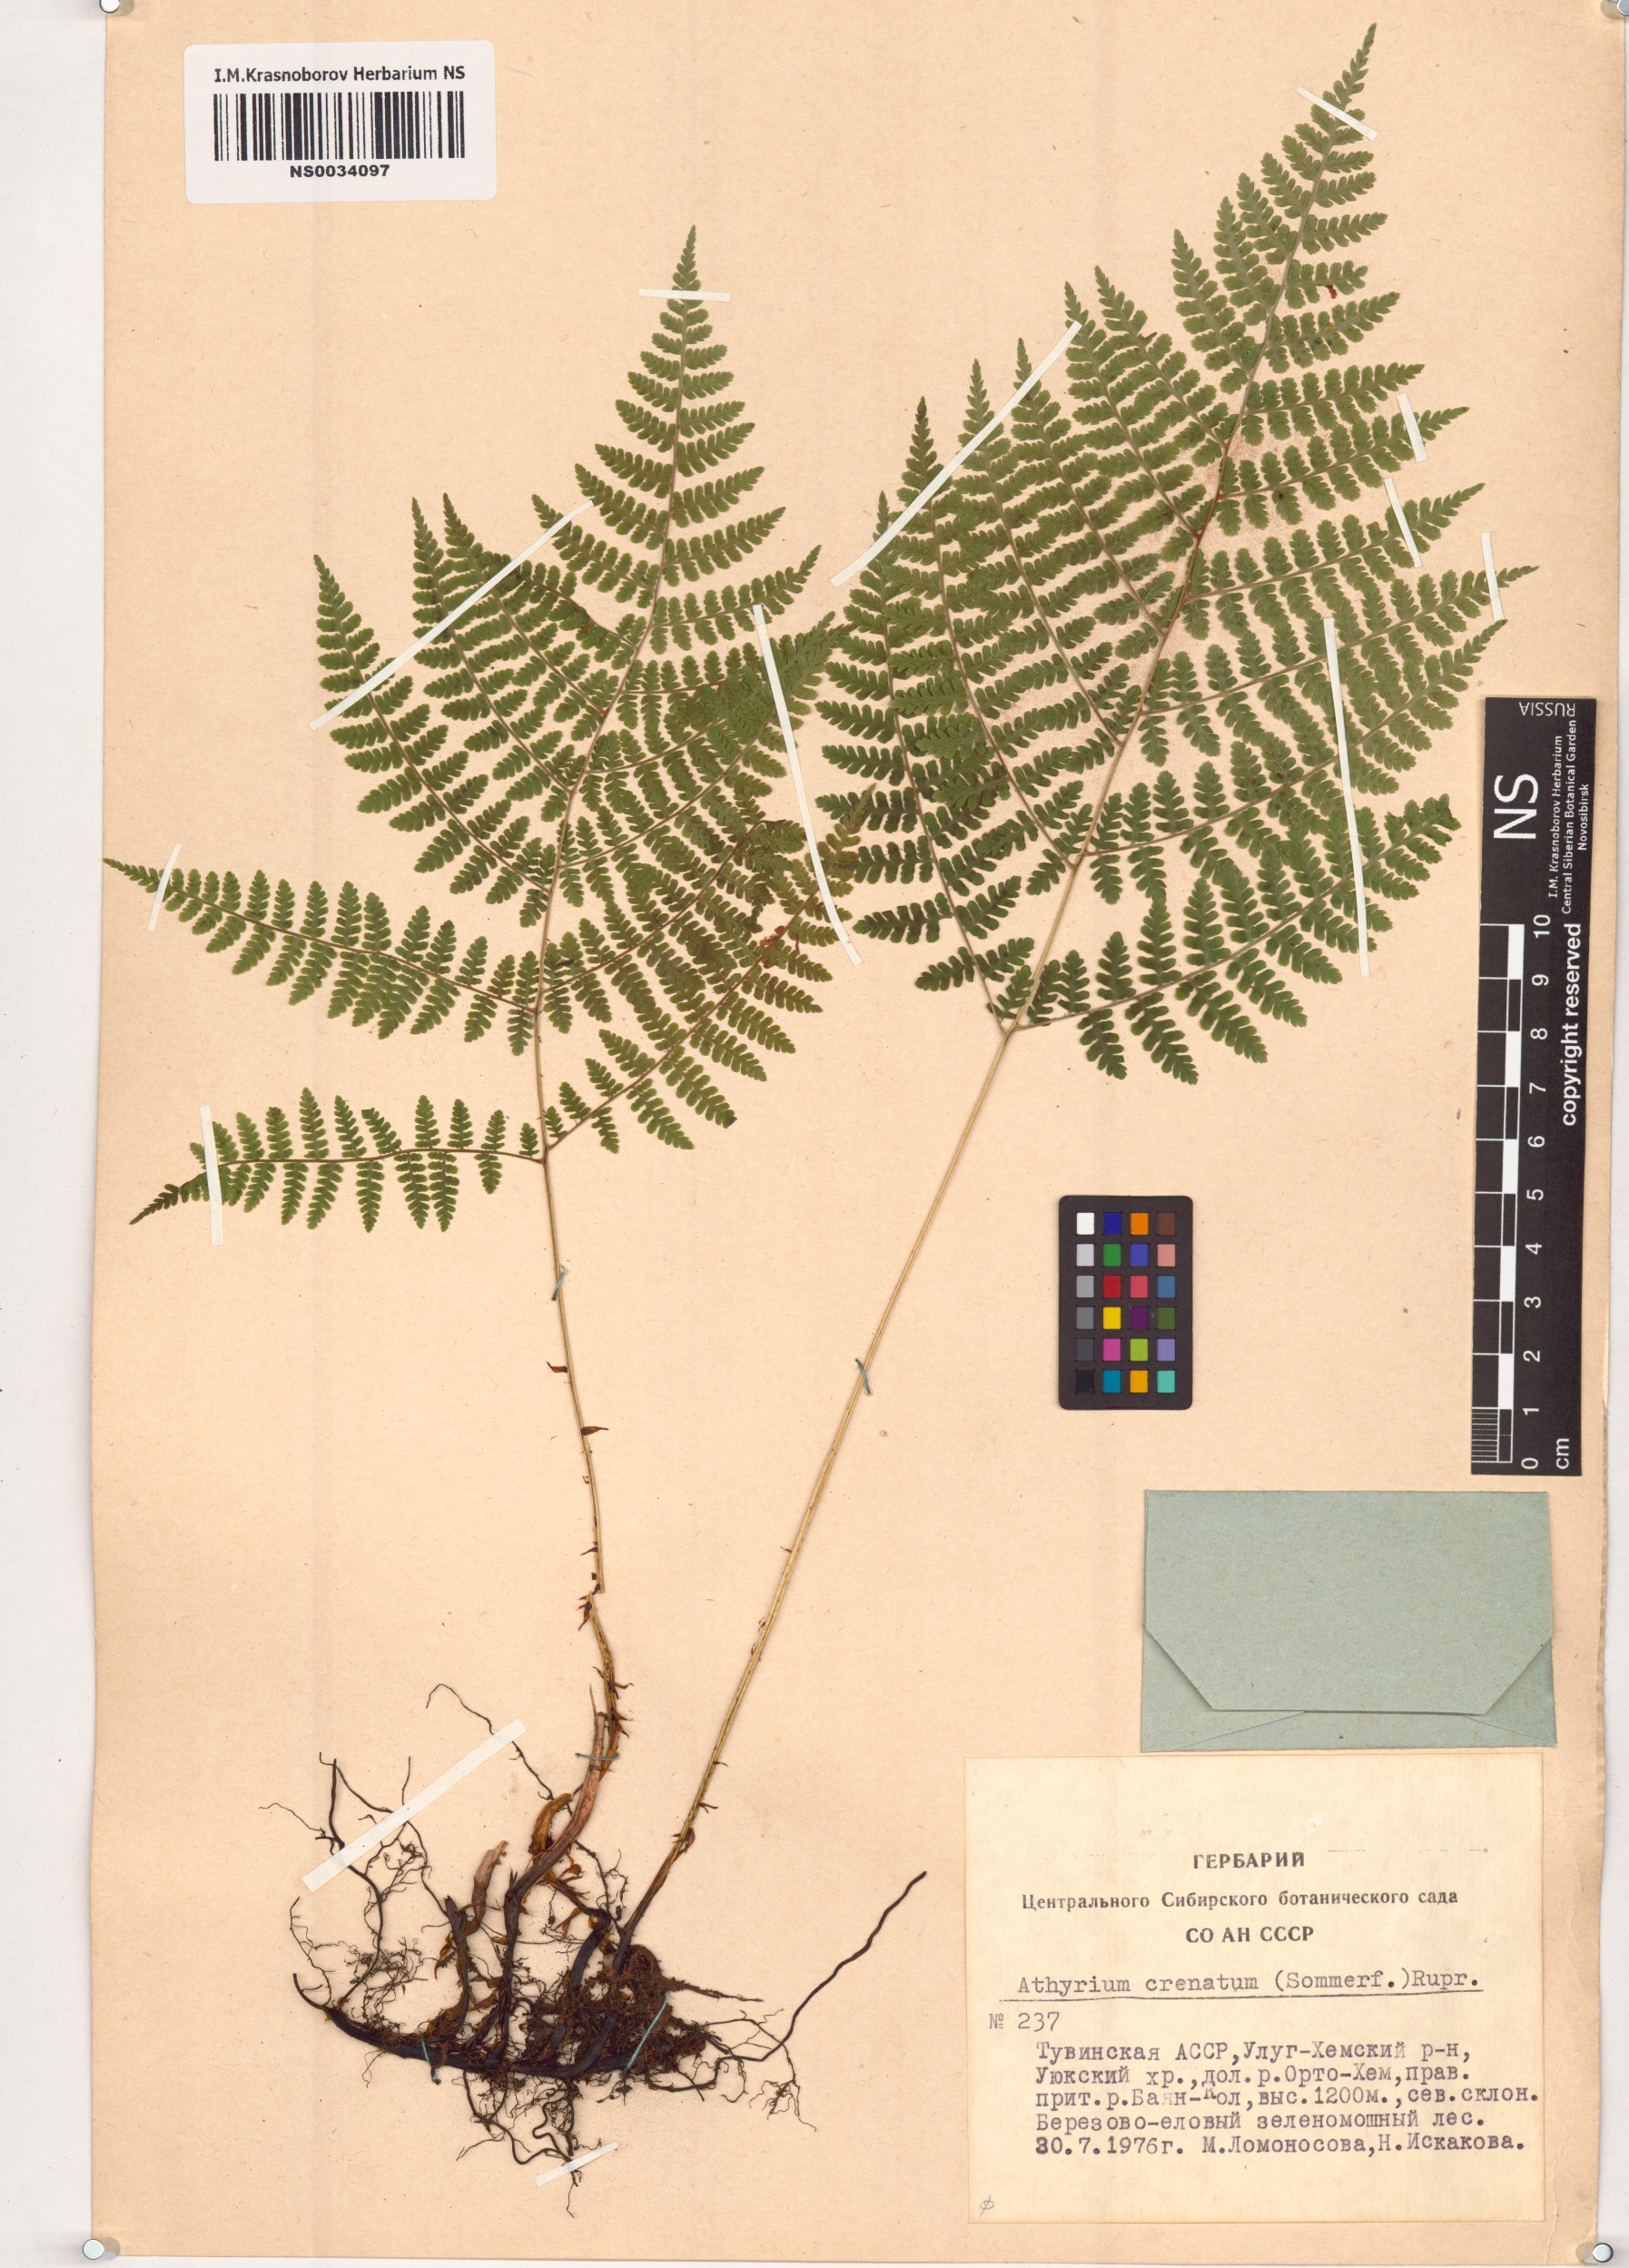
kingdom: Plantae
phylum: Tracheophyta
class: Polypodiopsida
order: Polypodiales
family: Athyriaceae
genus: Diplazium
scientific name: Diplazium sibiricum
